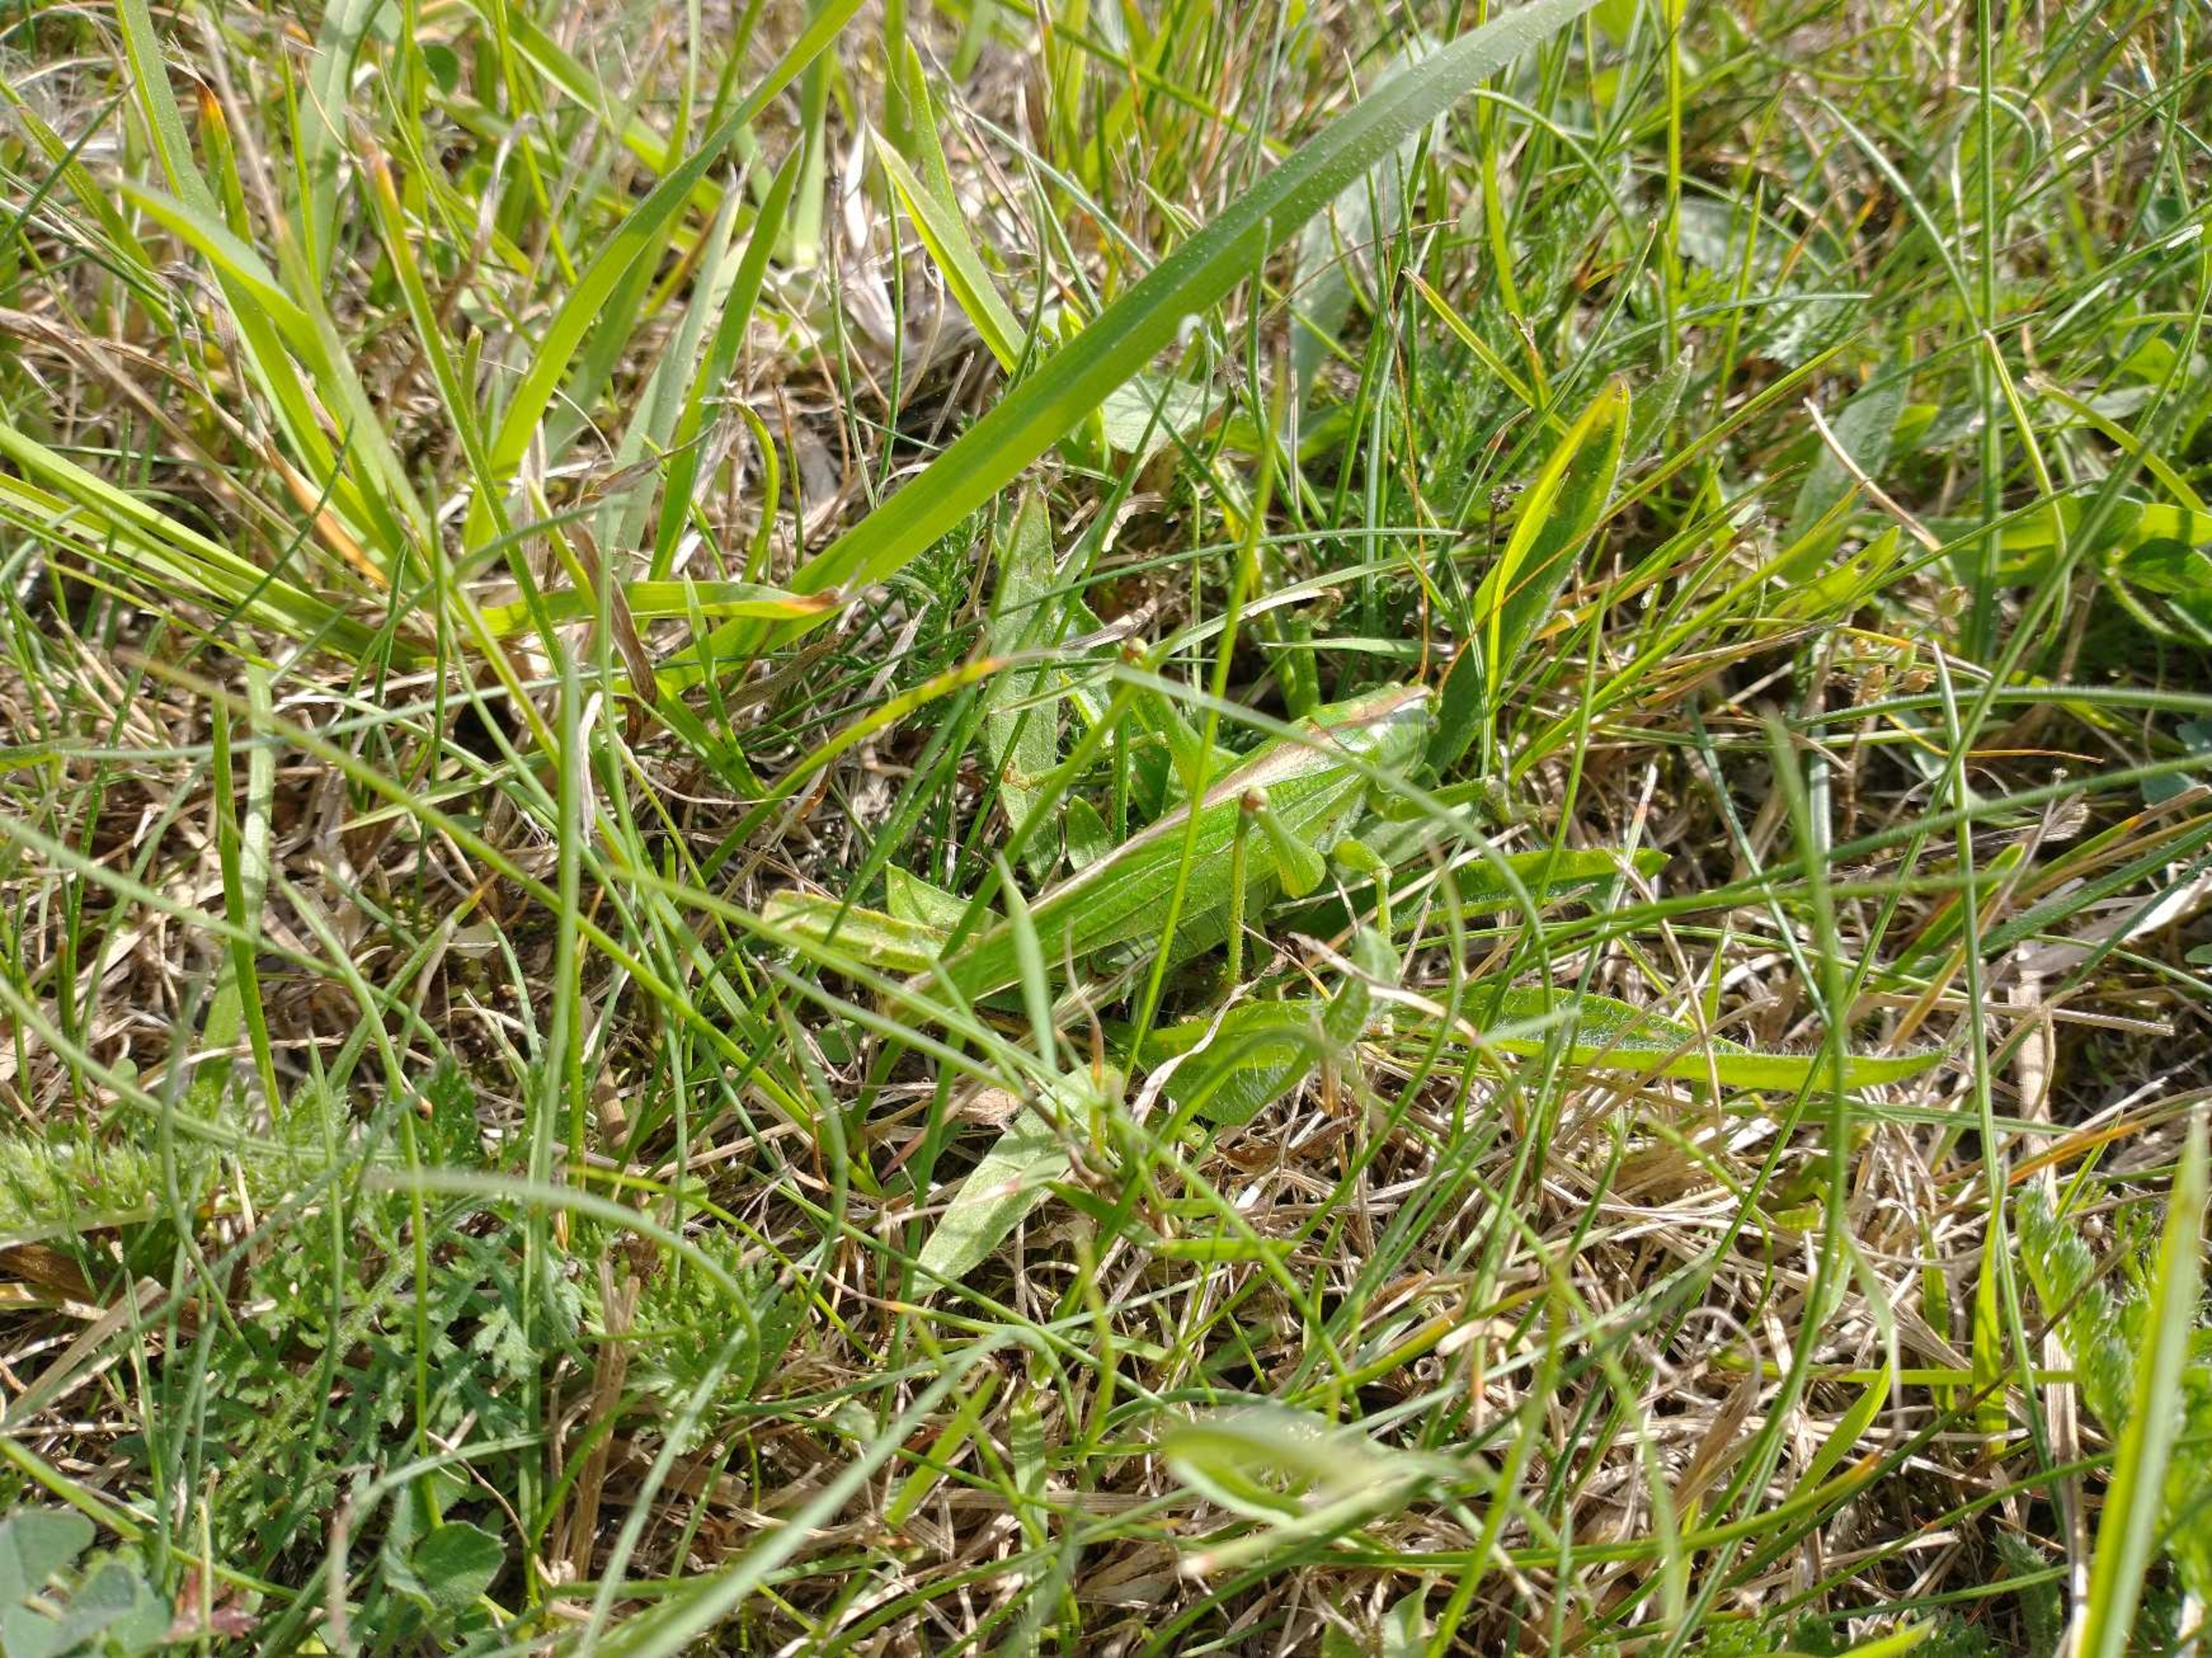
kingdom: Animalia
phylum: Arthropoda
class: Insecta
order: Orthoptera
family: Tettigoniidae
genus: Tettigonia
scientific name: Tettigonia viridissima
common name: Stor grøn løvgræshoppe
